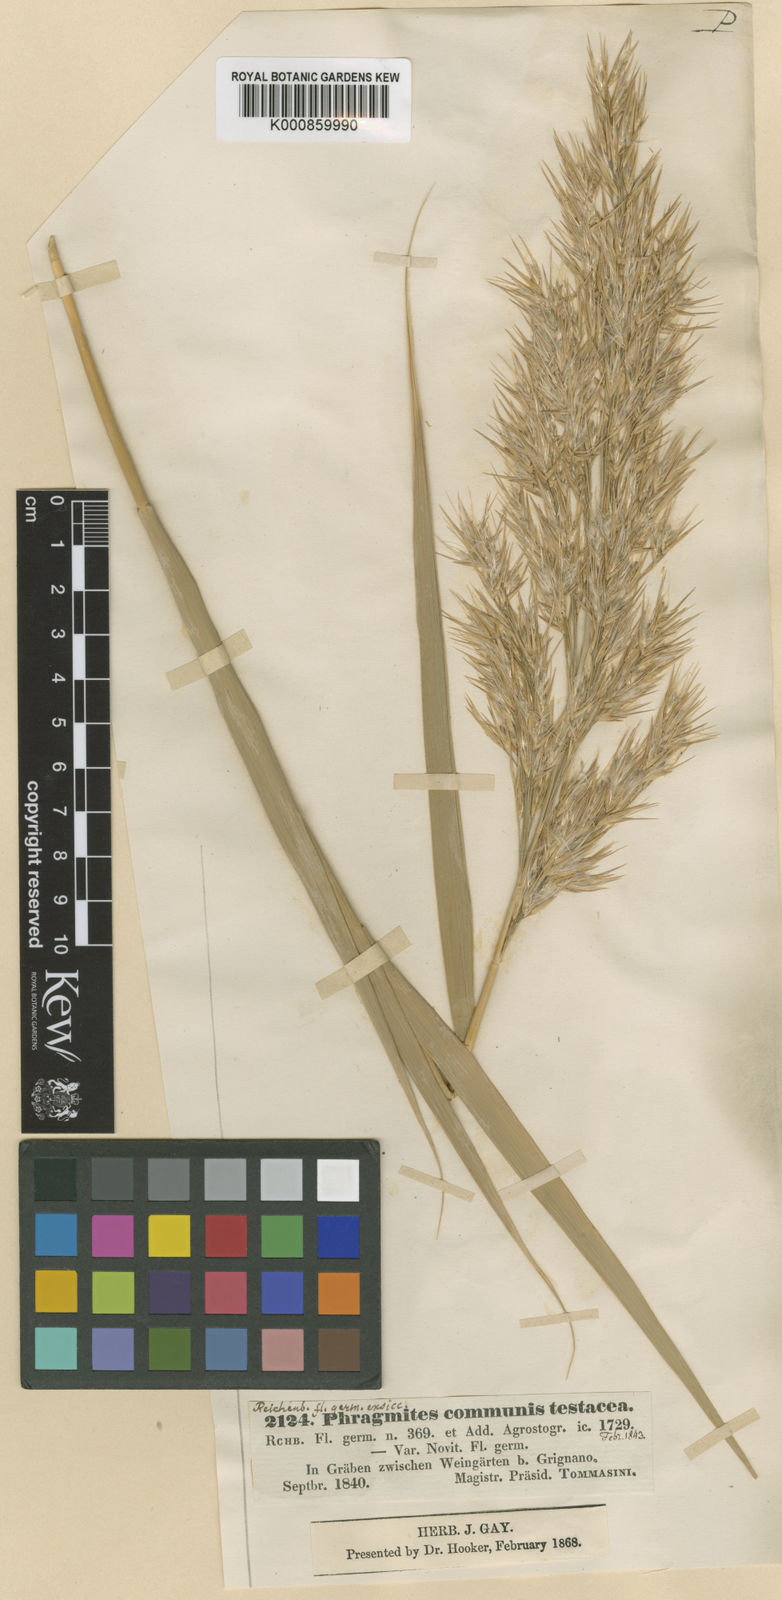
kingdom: Plantae
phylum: Tracheophyta
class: Liliopsida
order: Poales
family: Poaceae
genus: Phragmites
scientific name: Phragmites australis
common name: Common reed
